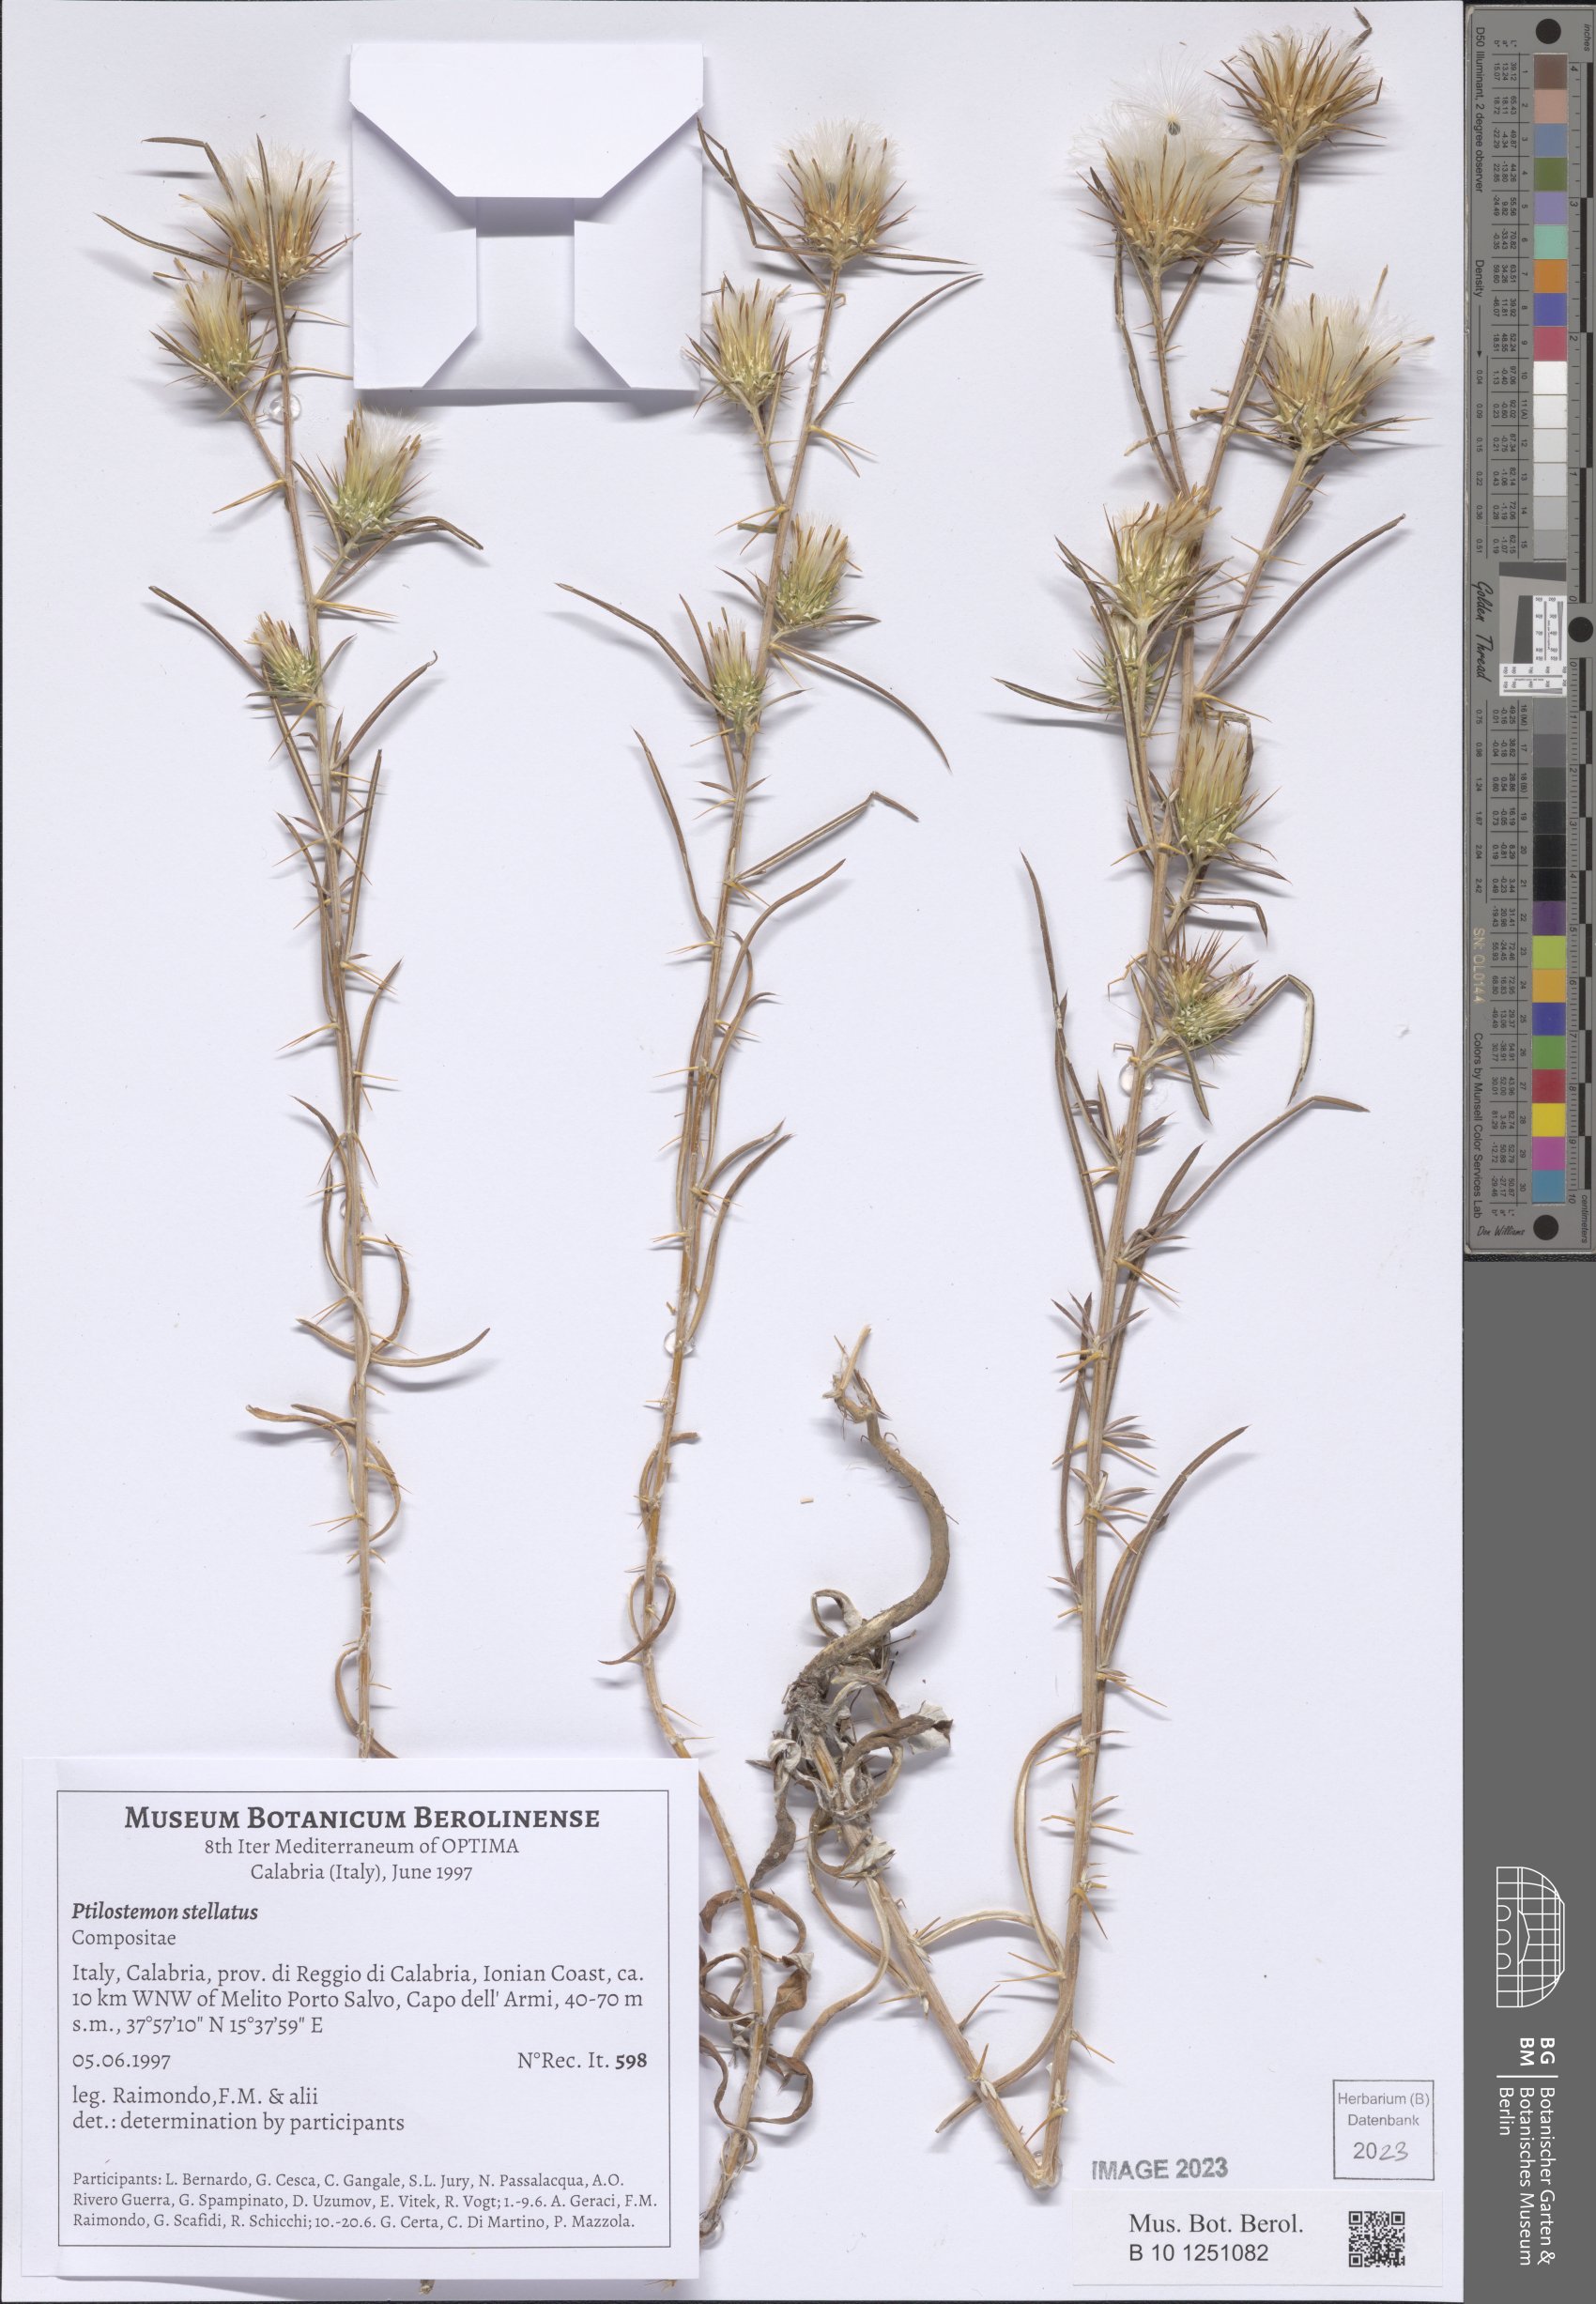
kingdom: Plantae
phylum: Tracheophyta
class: Magnoliopsida
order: Asterales
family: Asteraceae
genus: Ptilostemon
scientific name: Ptilostemon stellatus
